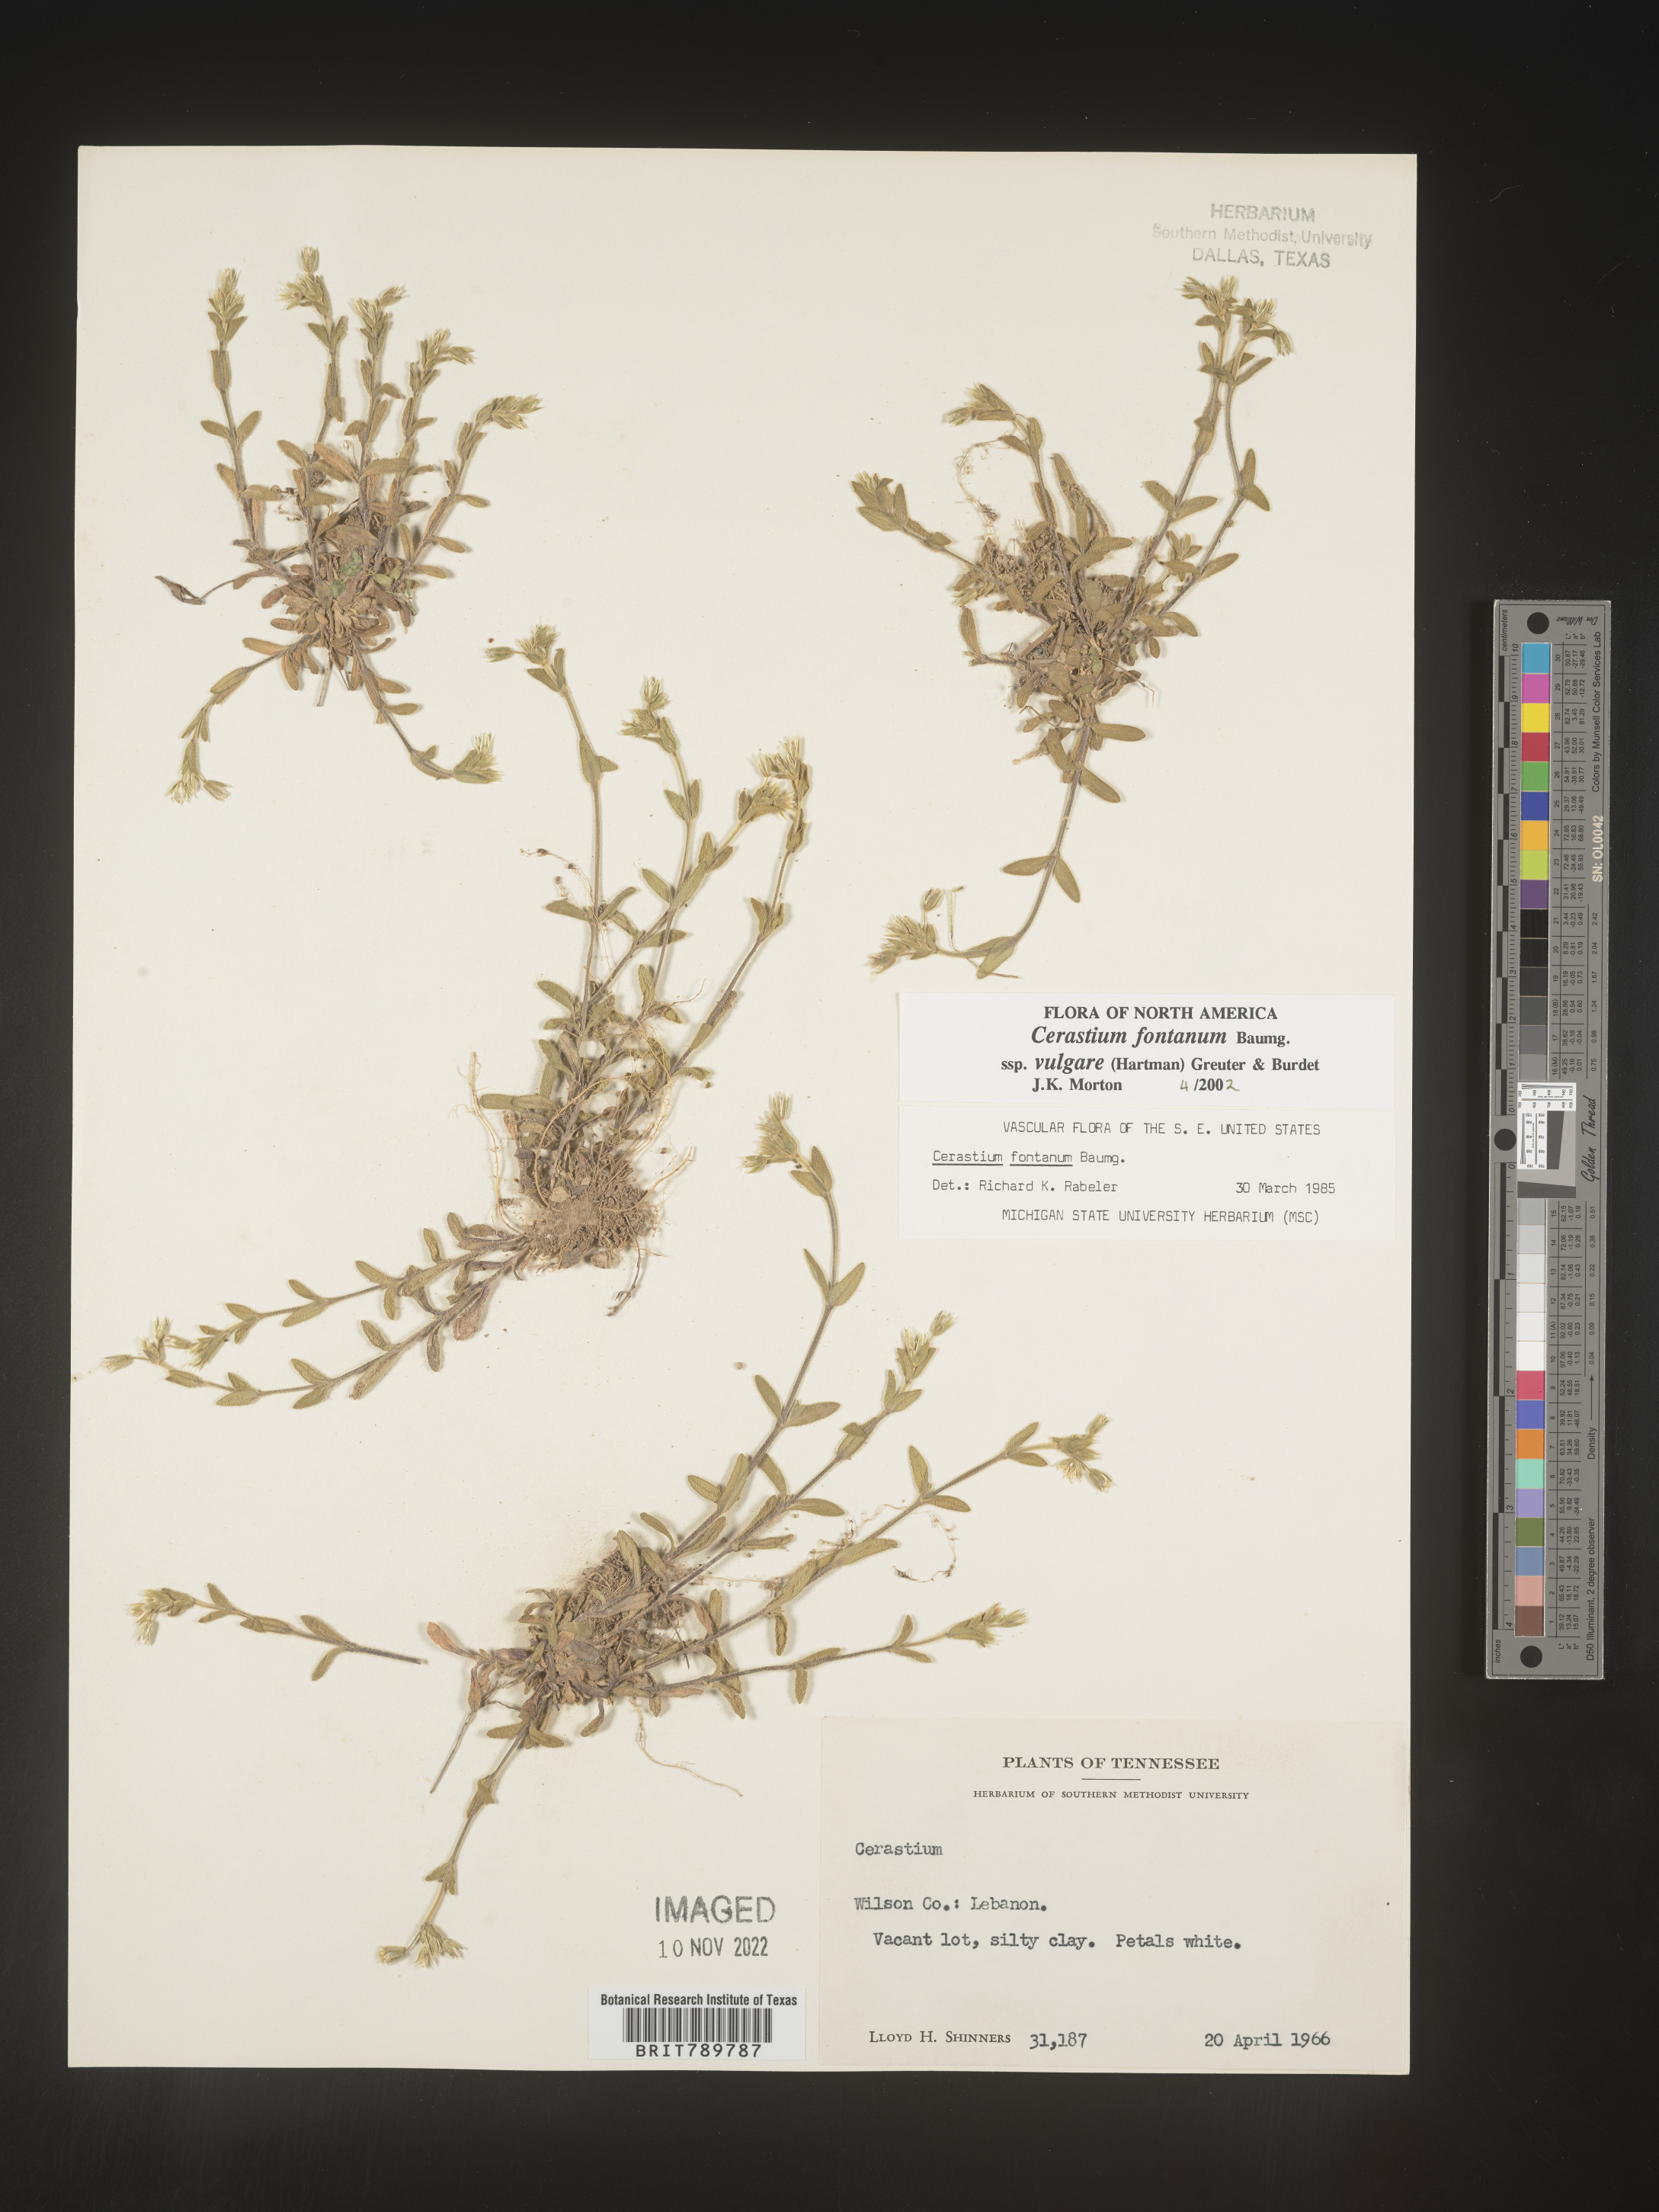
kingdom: Plantae
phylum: Tracheophyta
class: Magnoliopsida
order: Caryophyllales
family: Caryophyllaceae
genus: Cerastium
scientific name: Cerastium fontanum
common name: Common mouse-ear
